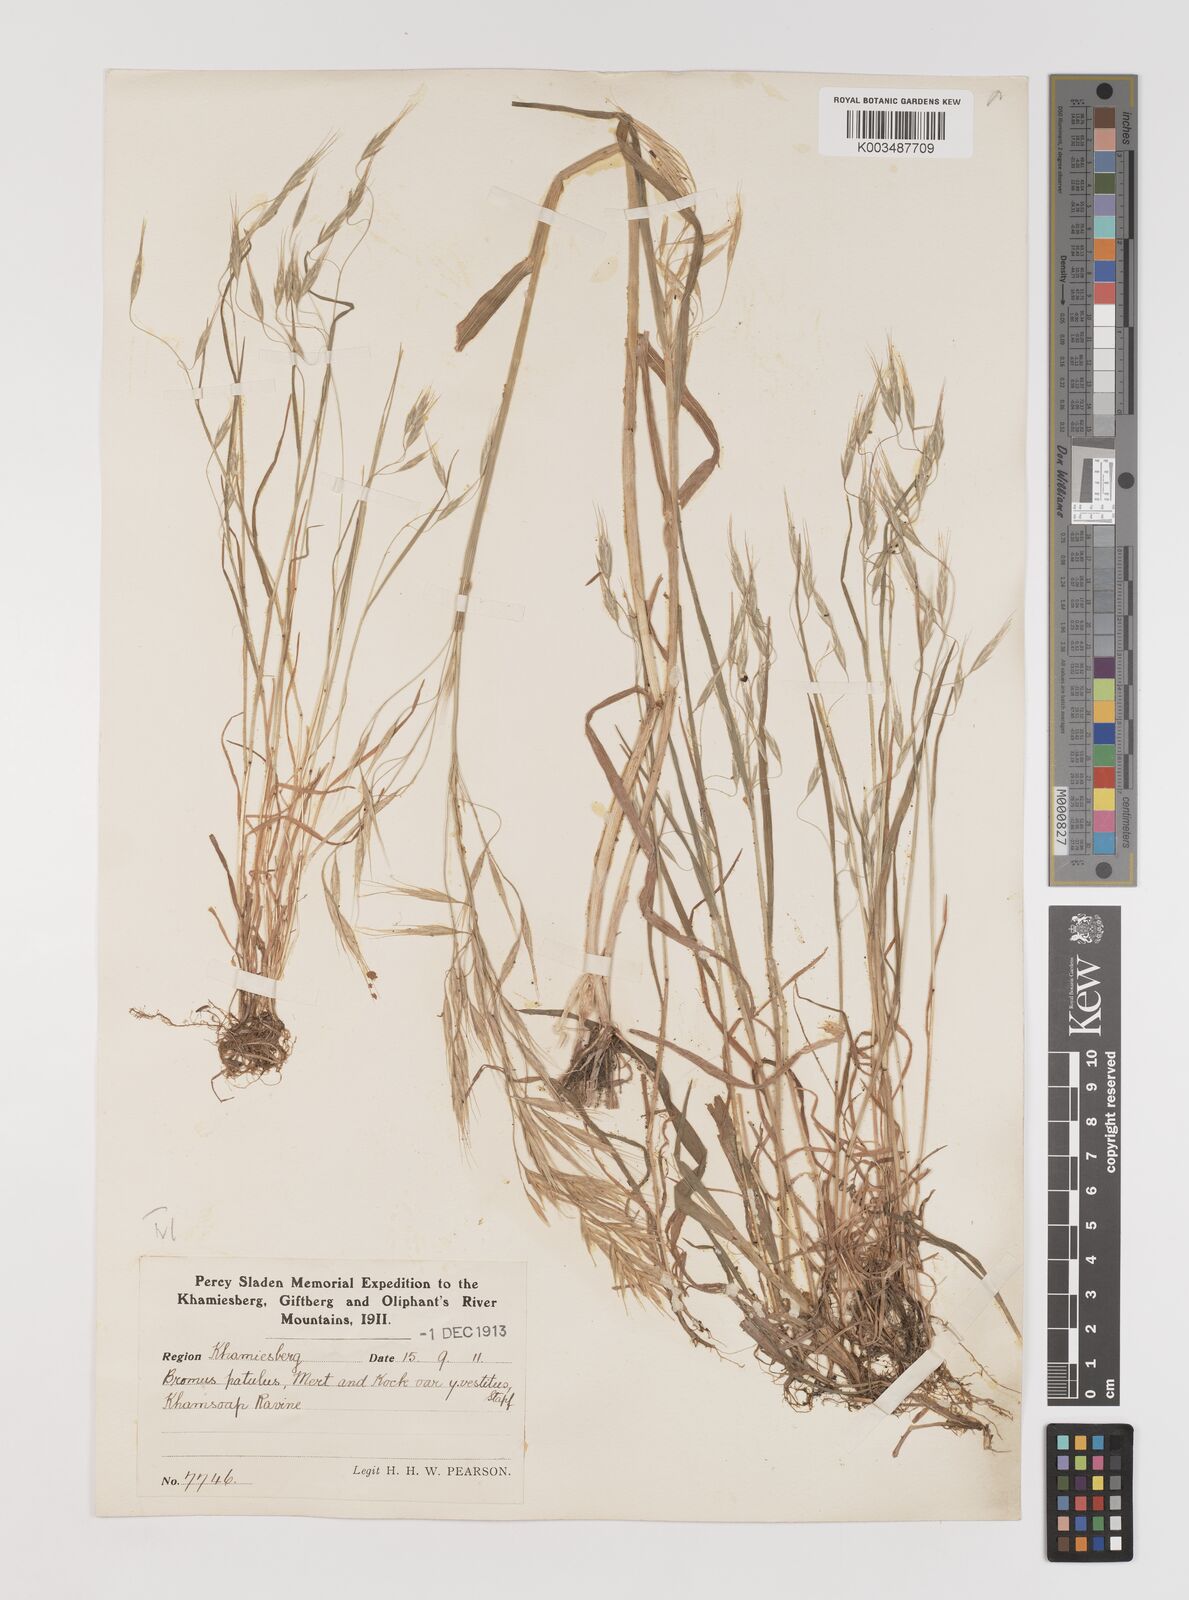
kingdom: Plantae
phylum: Tracheophyta
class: Liliopsida
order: Poales
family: Poaceae
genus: Bromus
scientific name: Bromus pectinatus
